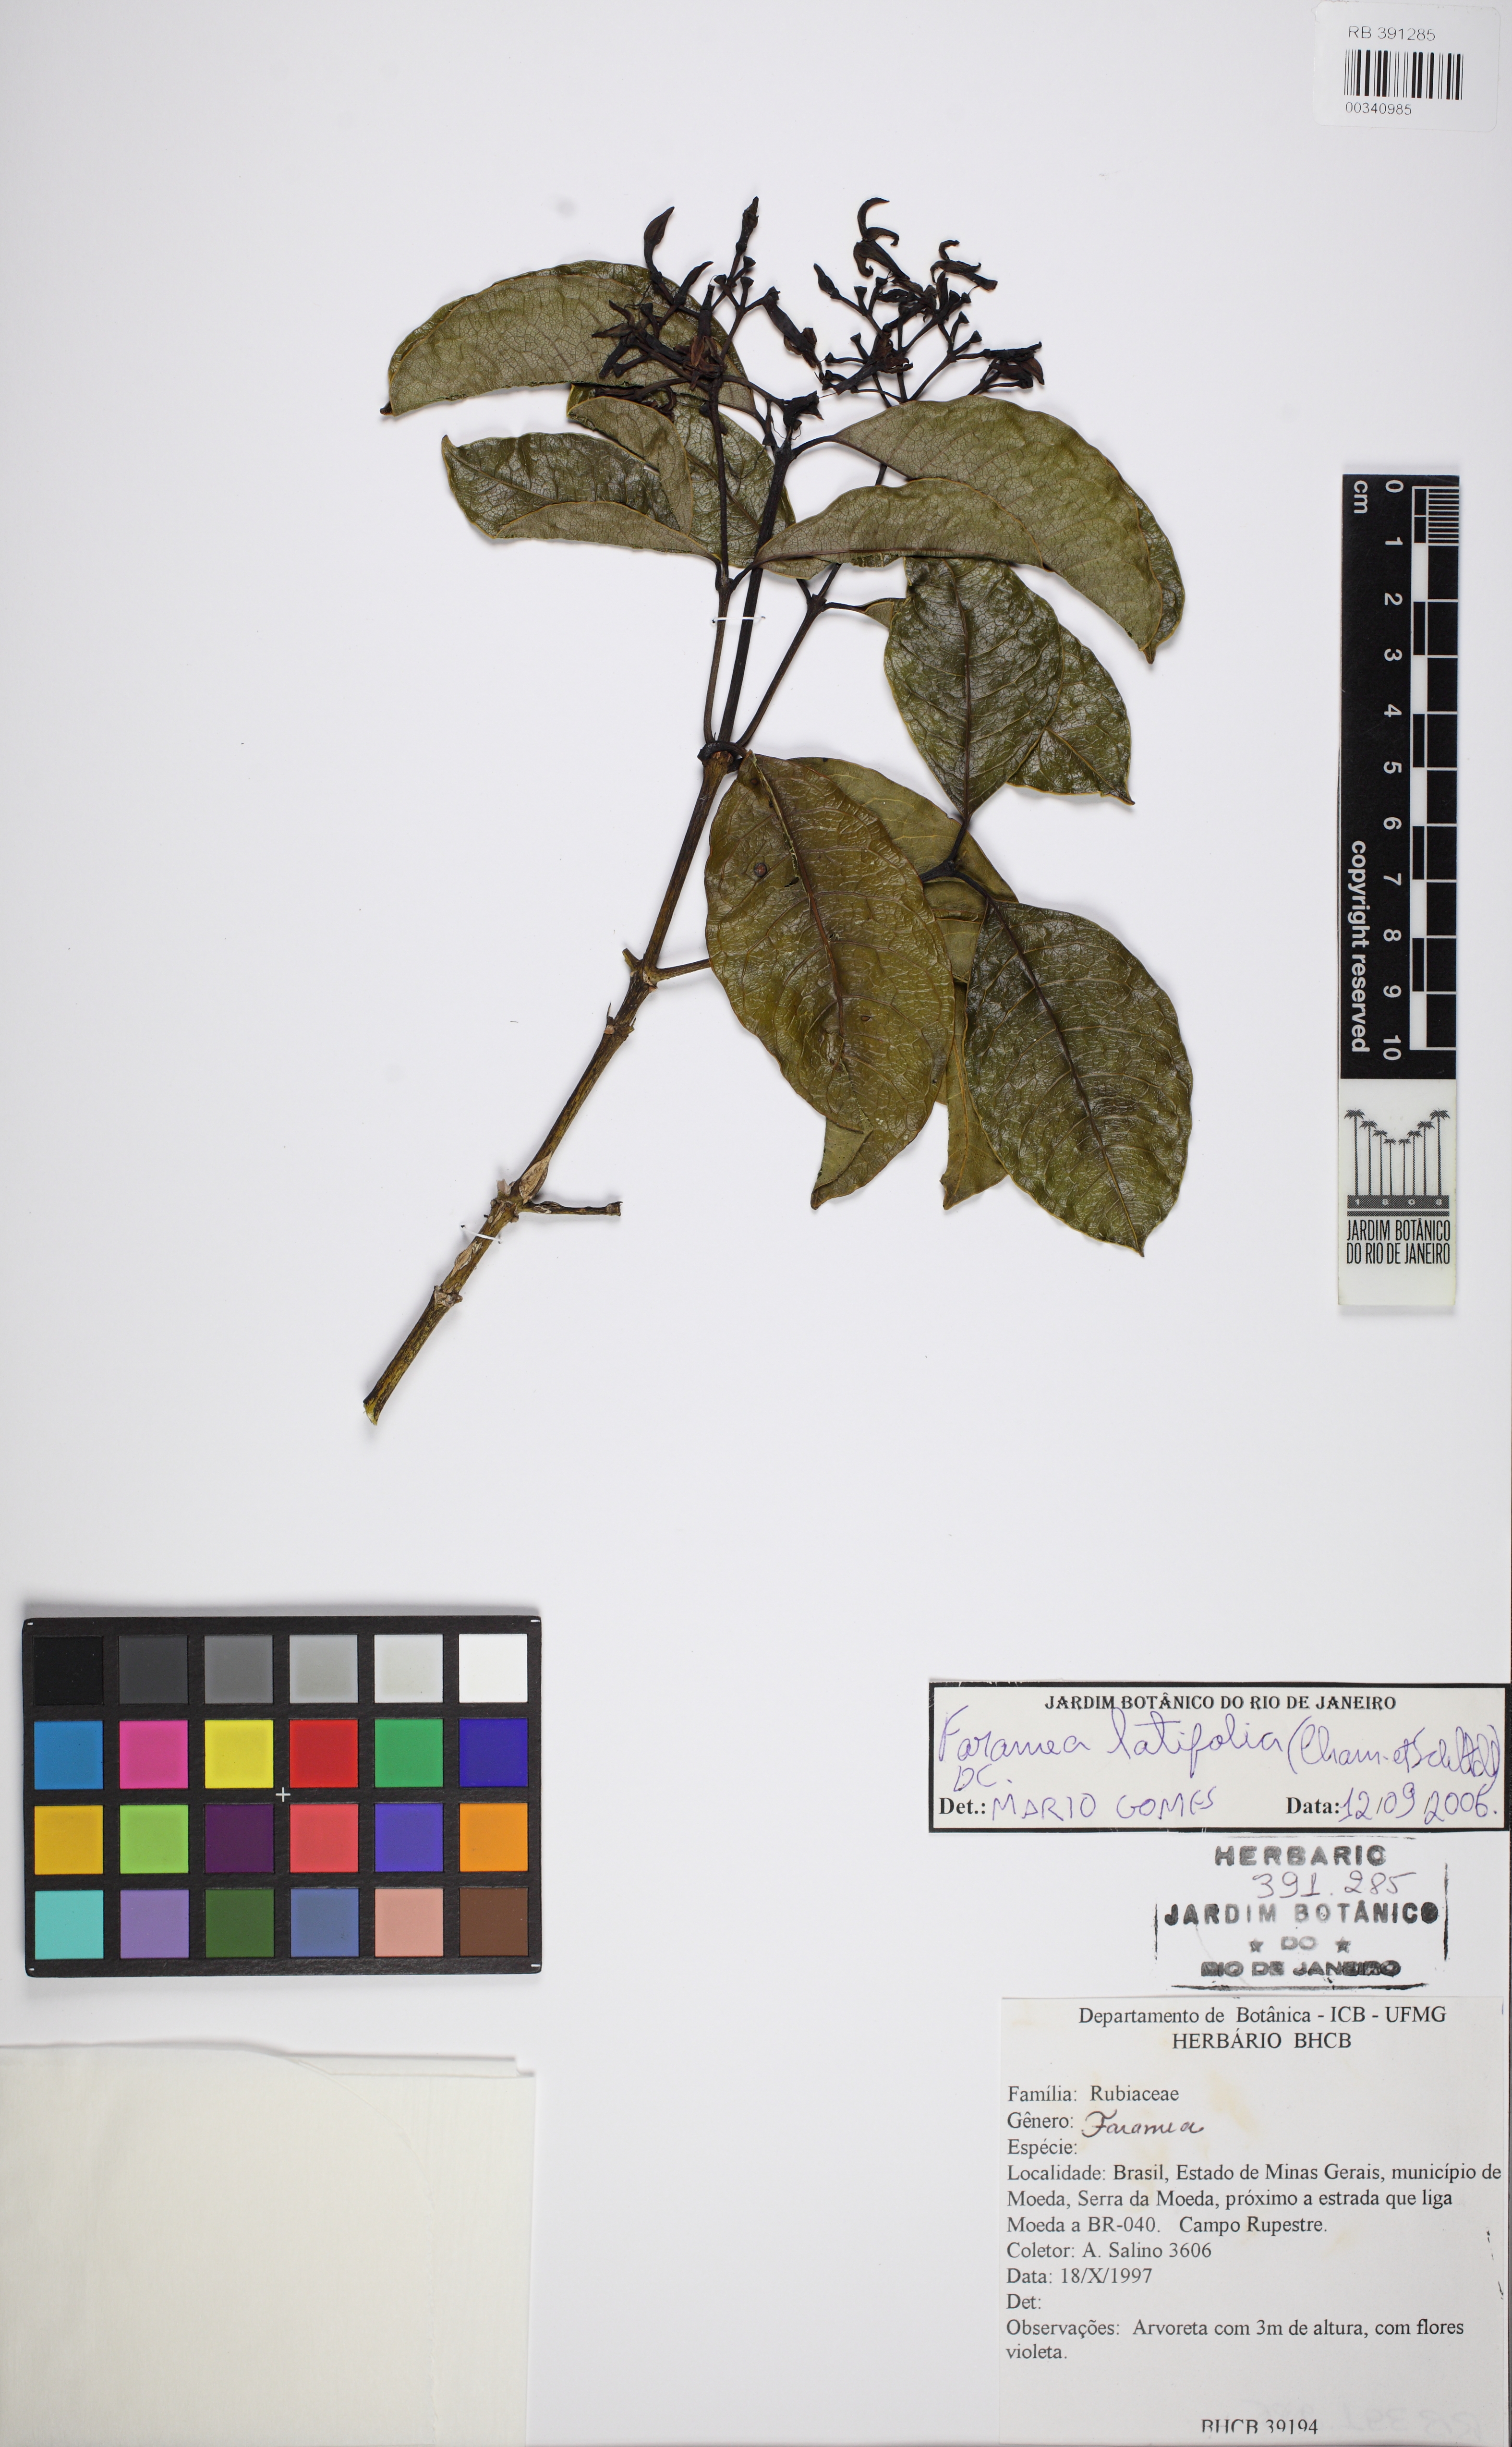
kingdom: Plantae
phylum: Tracheophyta
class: Magnoliopsida
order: Gentianales
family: Rubiaceae
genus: Faramea
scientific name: Faramea latifolia
